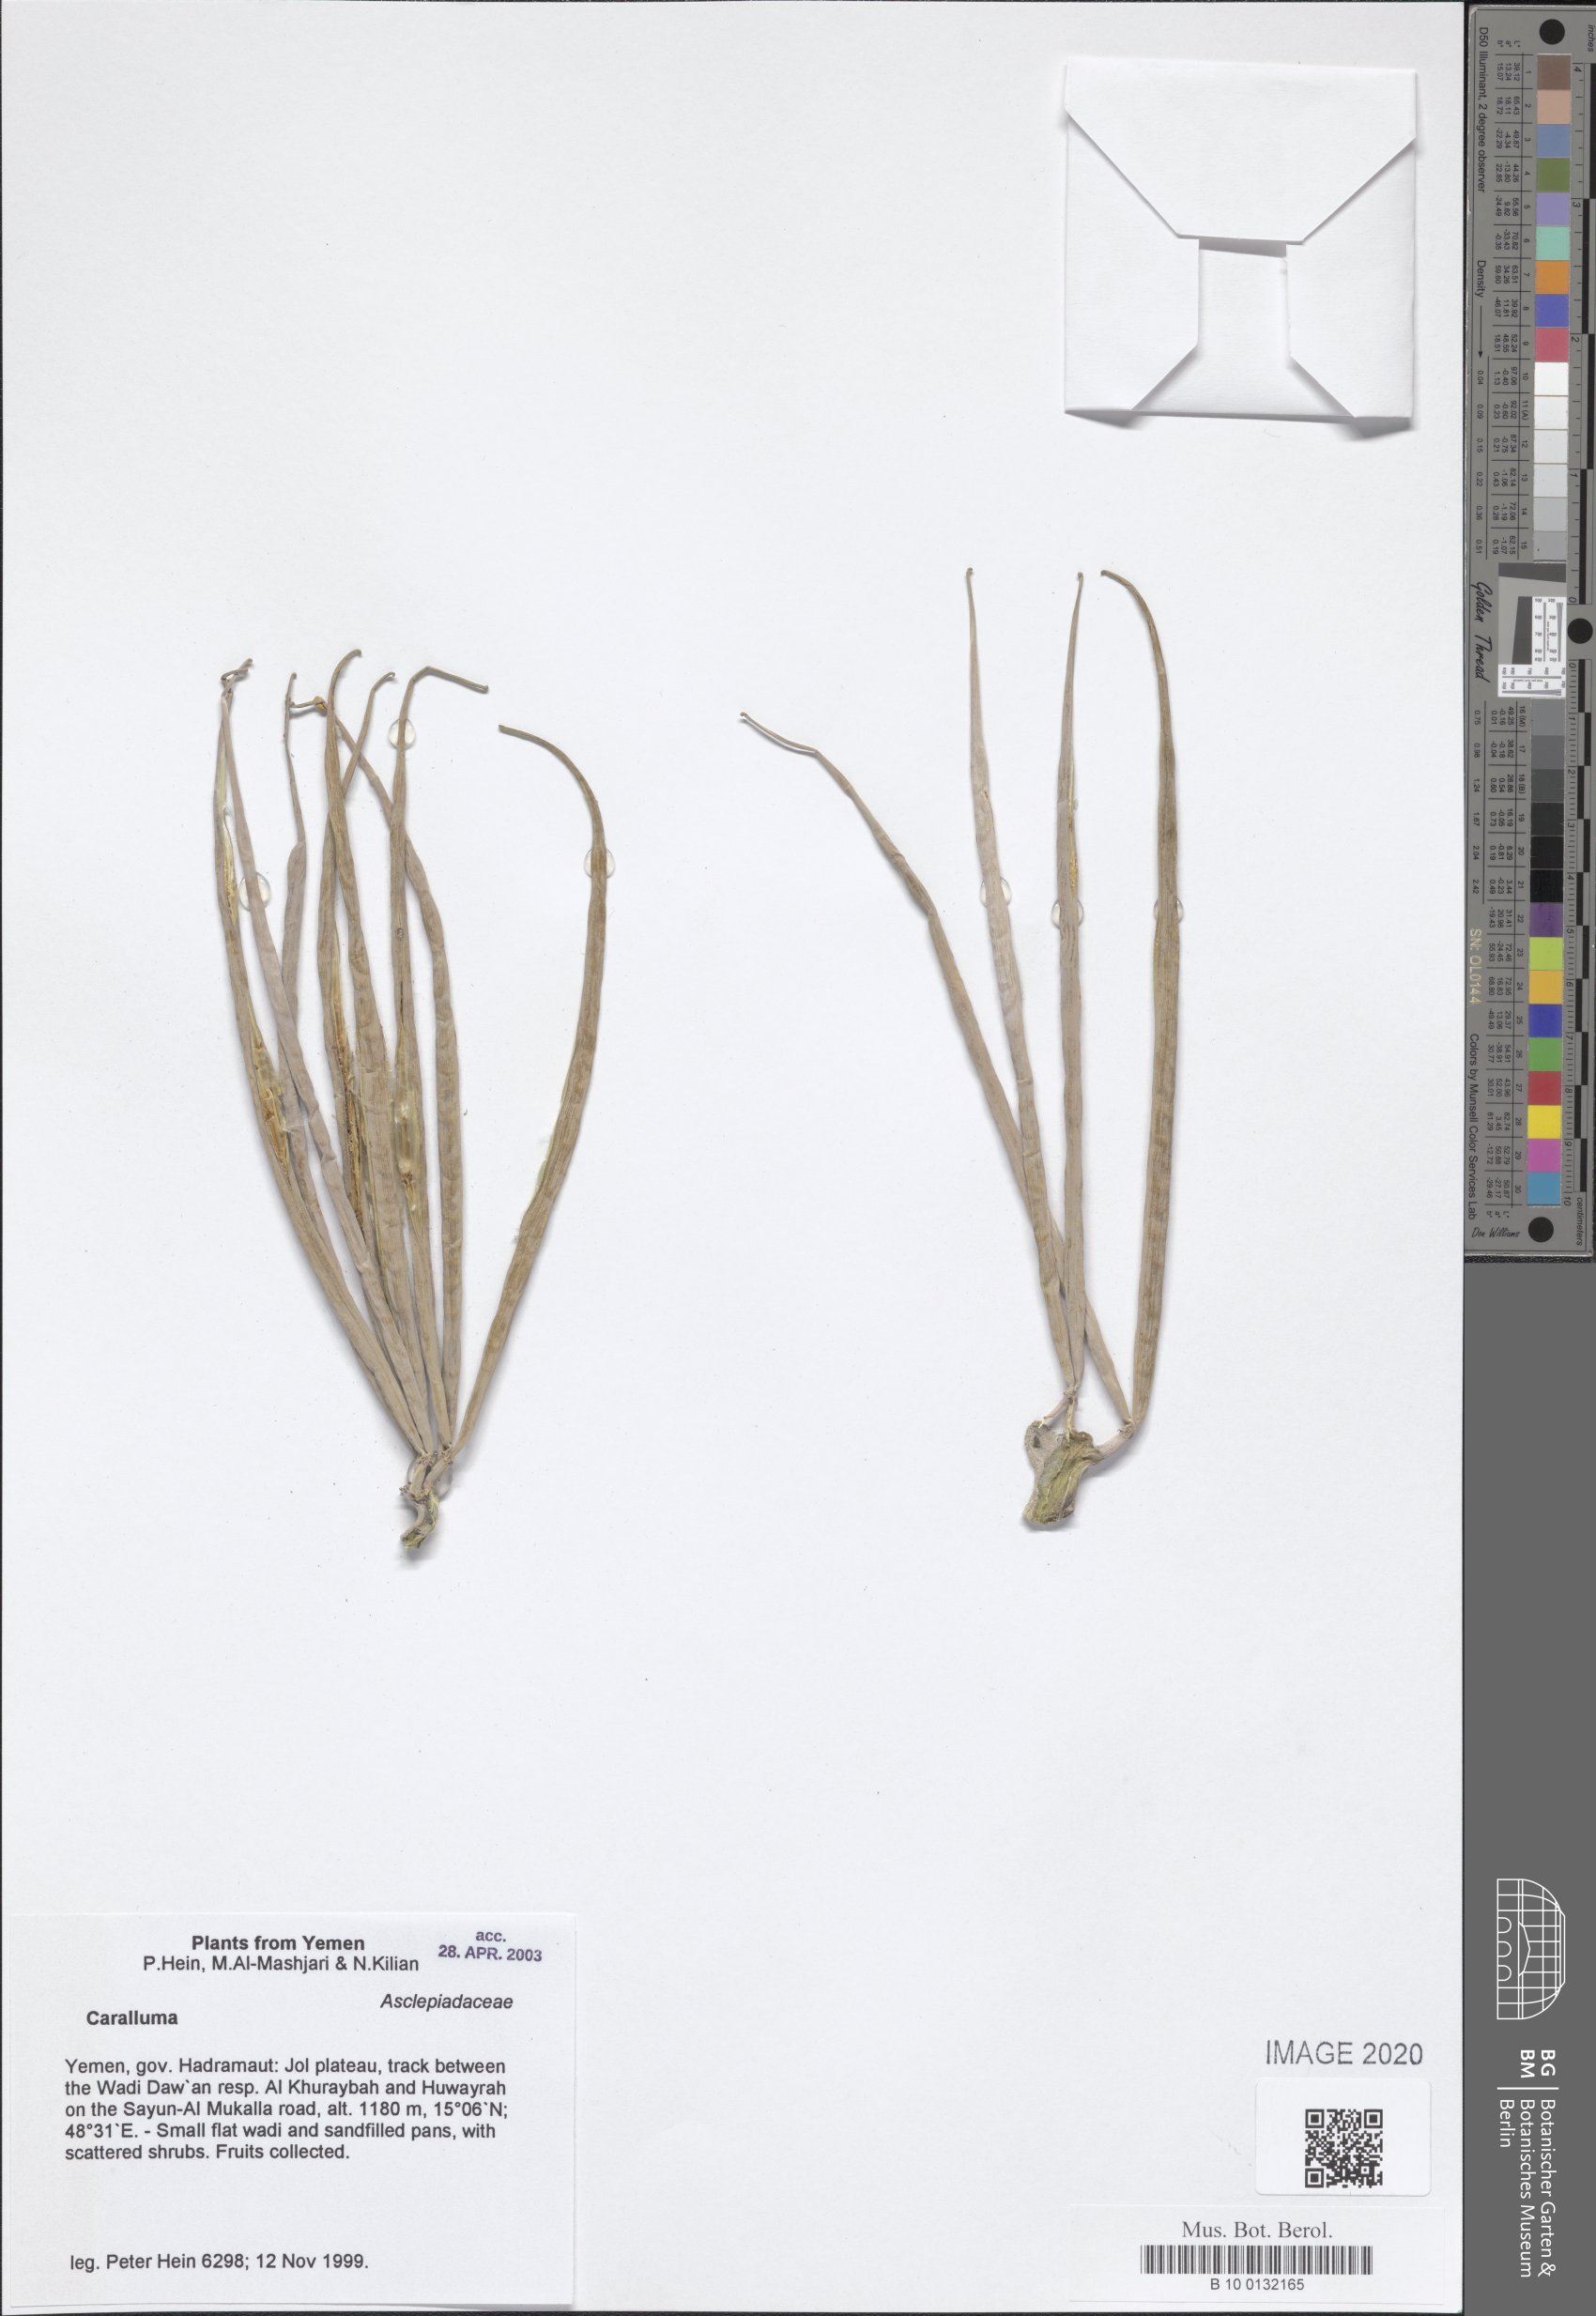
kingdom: Plantae
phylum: Tracheophyta
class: Magnoliopsida
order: Gentianales
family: Apocynaceae
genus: Caralluma
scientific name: Caralluma
